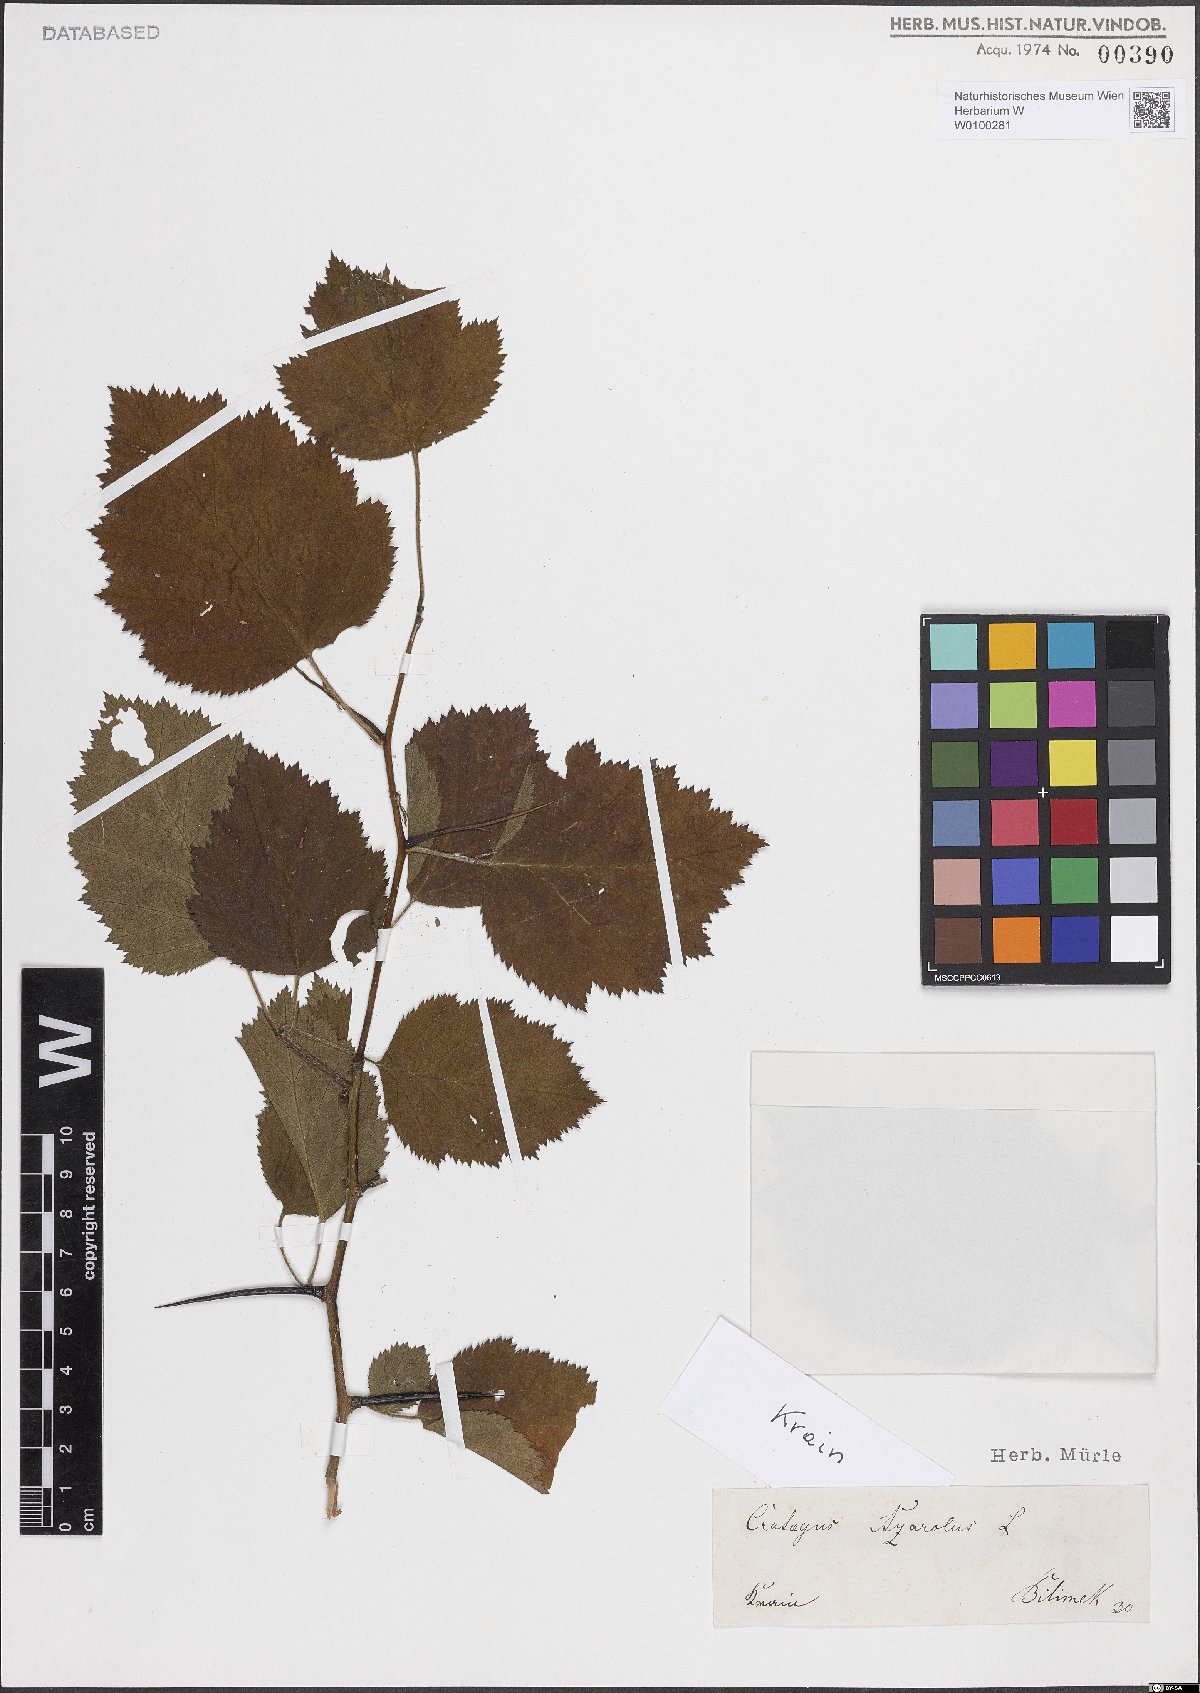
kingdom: Plantae
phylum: Tracheophyta
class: Magnoliopsida
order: Rosales
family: Rosaceae
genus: Crataegus
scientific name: Crataegus azarolus
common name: Azarole
